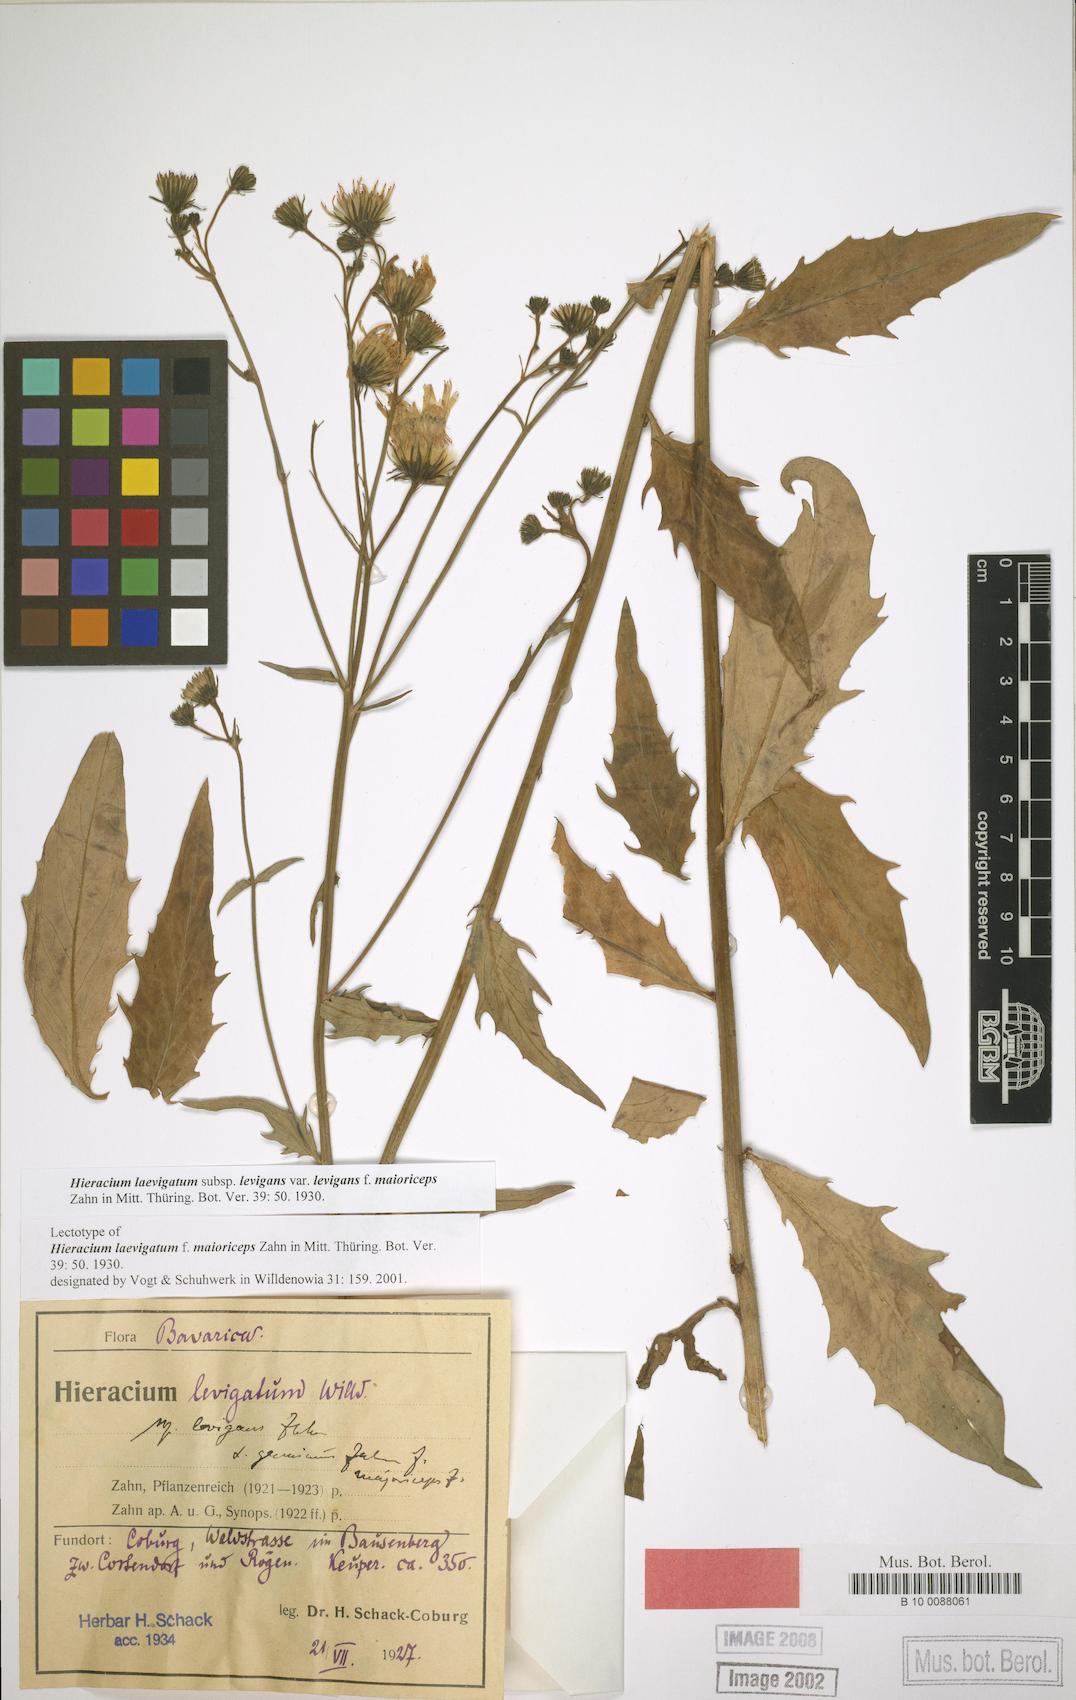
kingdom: Plantae
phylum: Tracheophyta
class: Magnoliopsida
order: Asterales
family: Asteraceae
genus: Hieracium
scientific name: Hieracium laevigatum
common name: Smooth hawkweed
